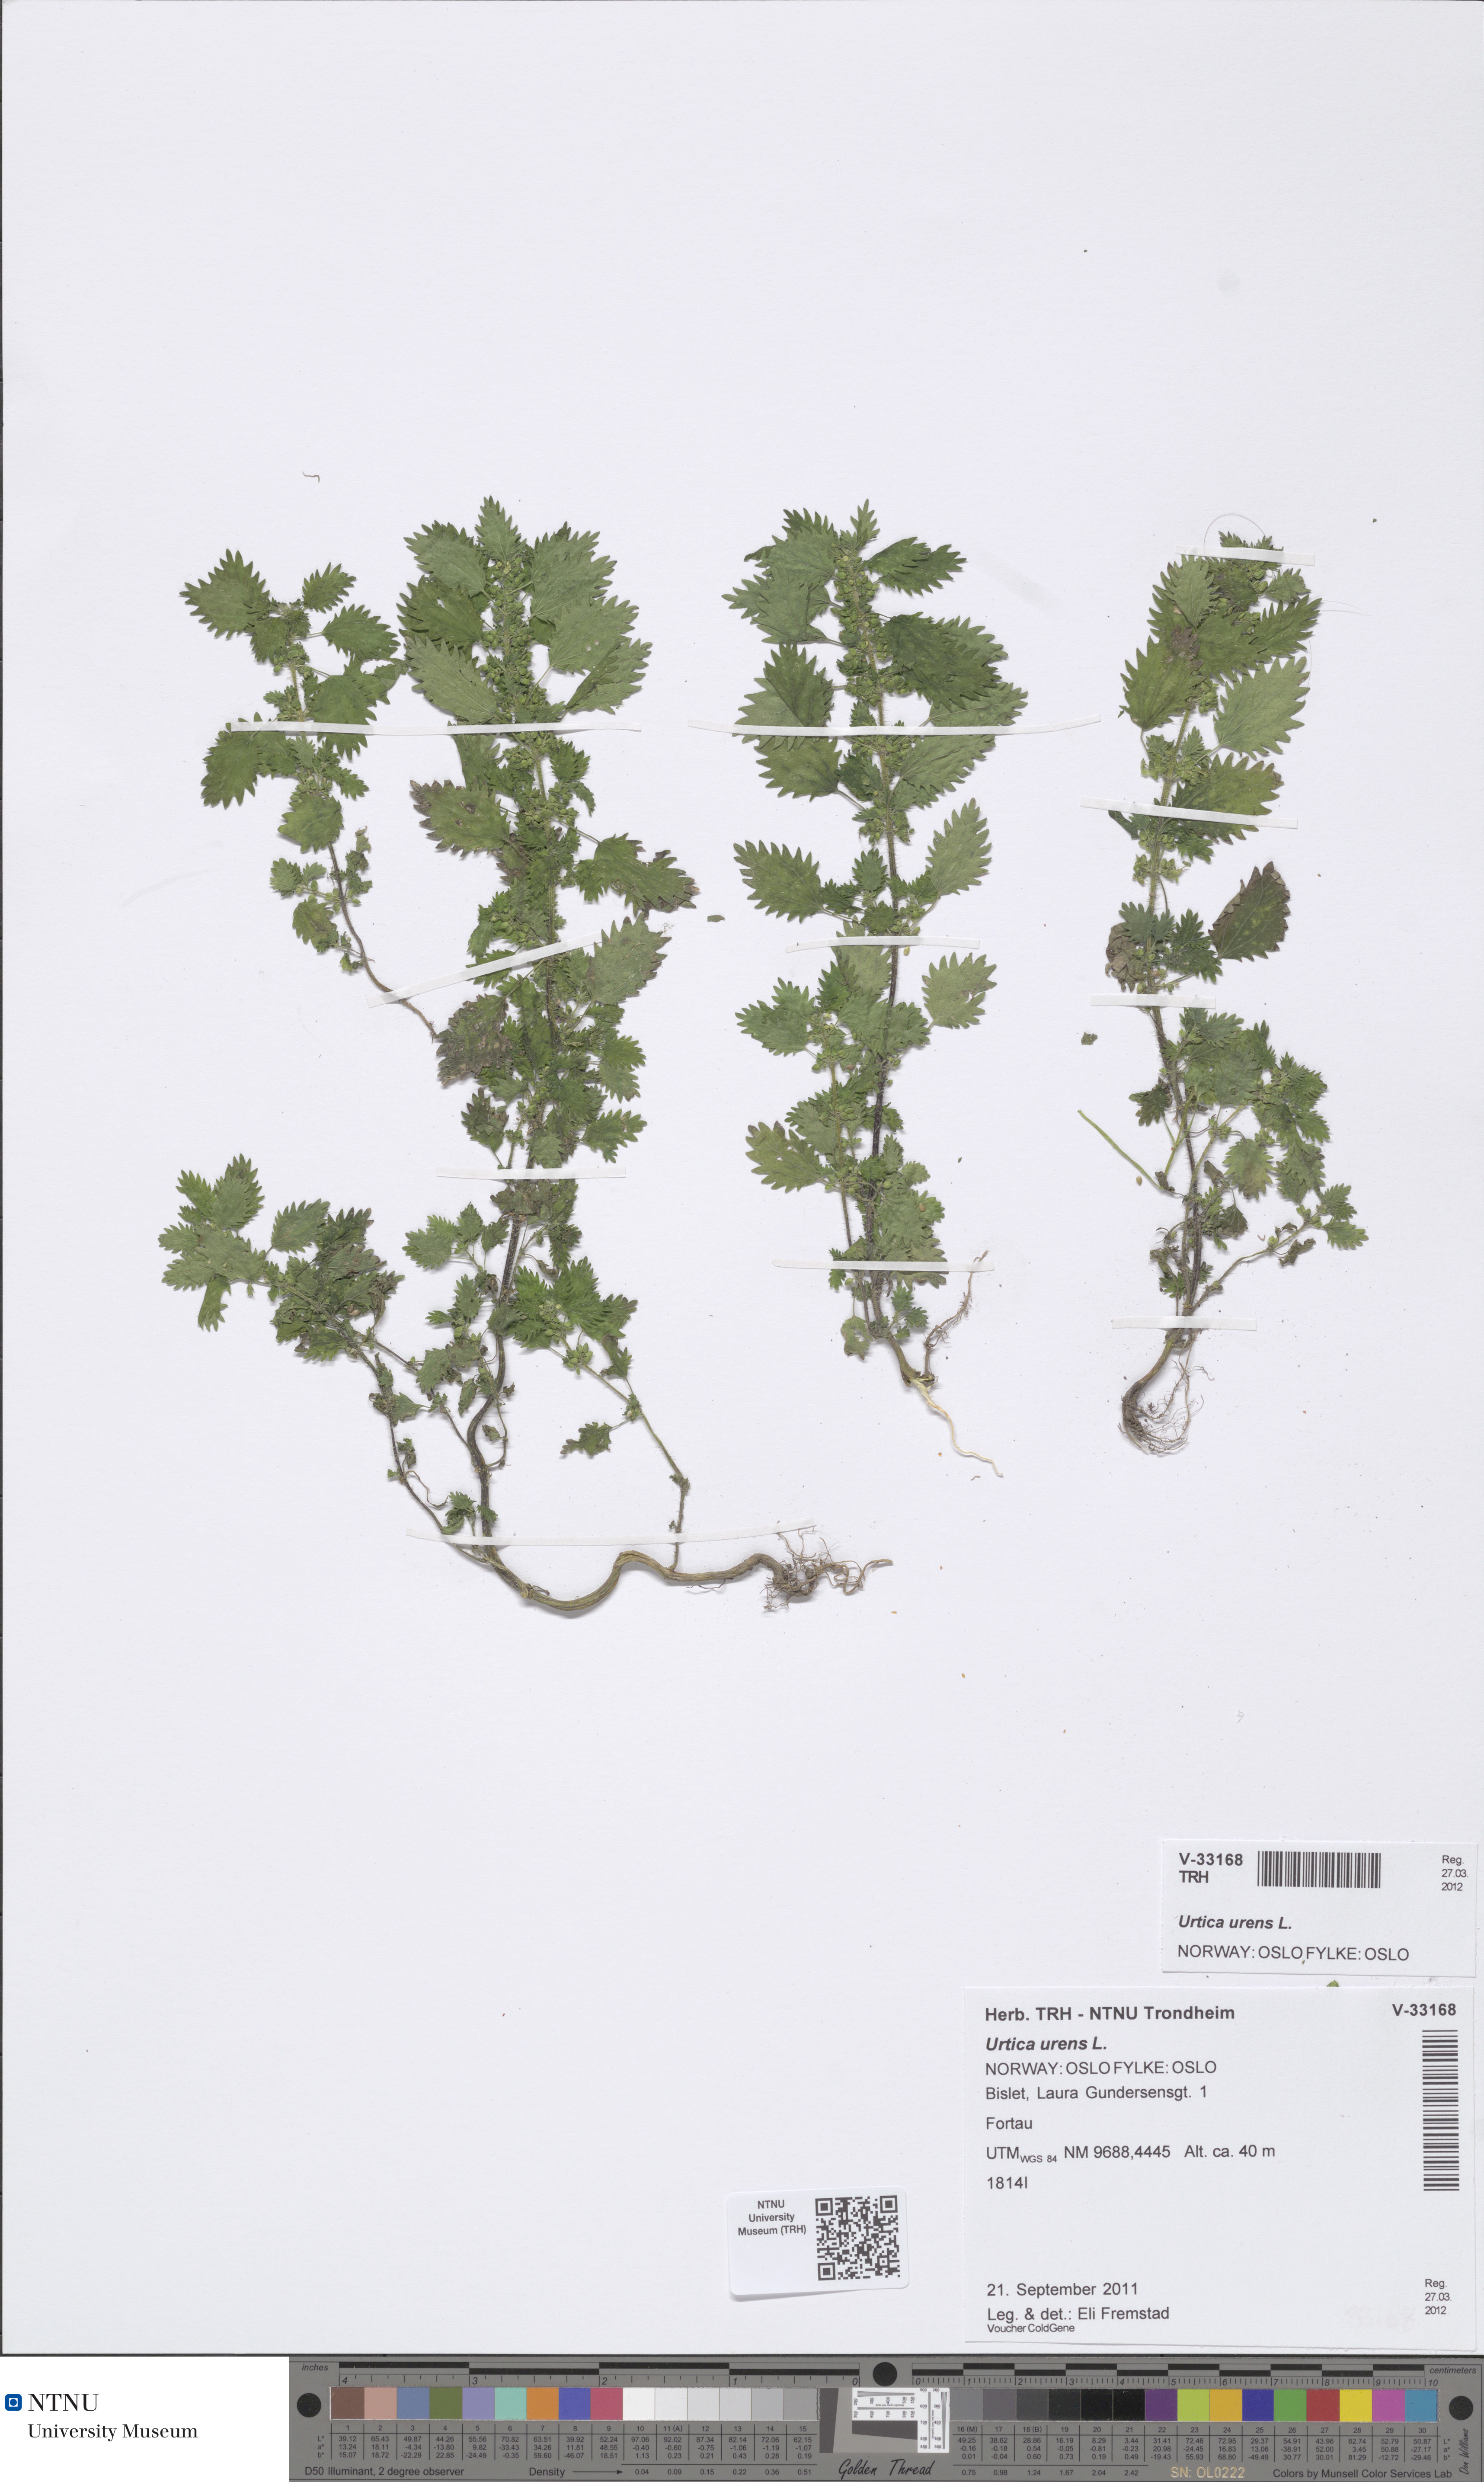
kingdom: Plantae
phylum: Tracheophyta
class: Magnoliopsida
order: Rosales
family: Urticaceae
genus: Urtica
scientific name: Urtica urens
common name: Dwarf nettle
